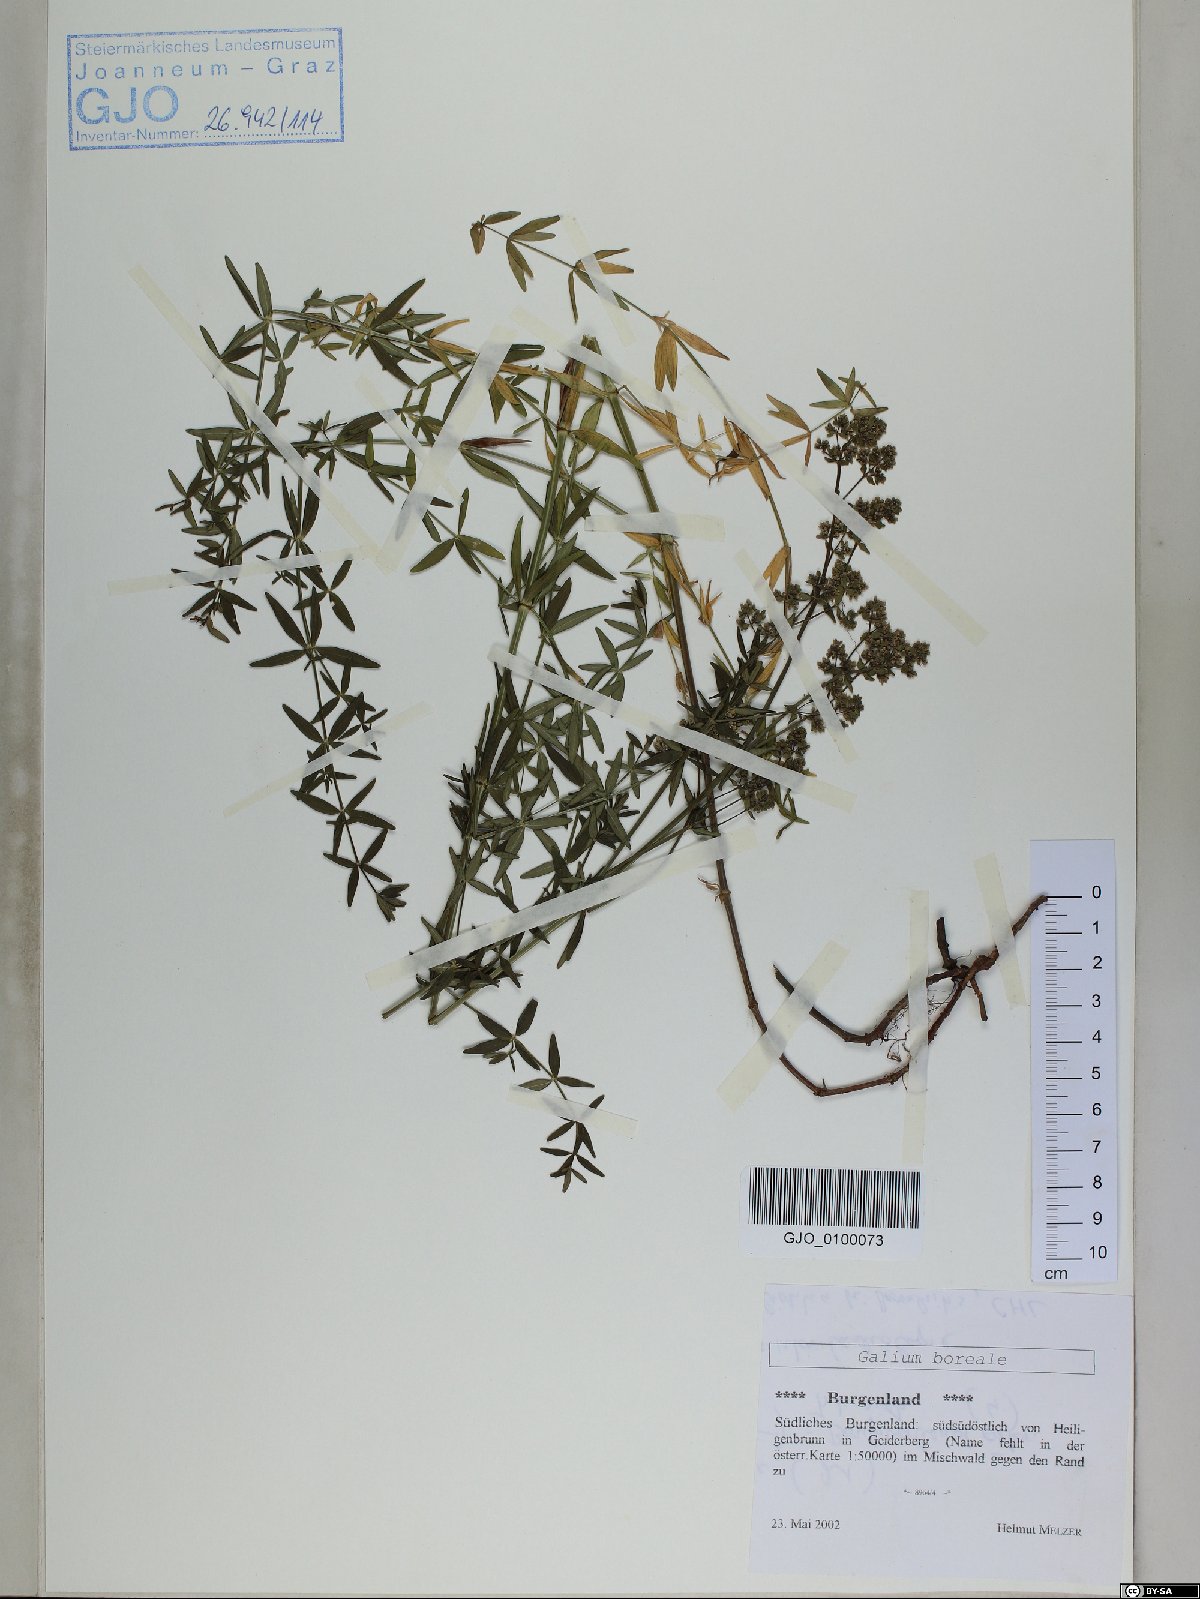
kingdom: Plantae
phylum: Tracheophyta
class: Magnoliopsida
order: Gentianales
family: Rubiaceae
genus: Galium
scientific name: Galium boreale
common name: Northern bedstraw
